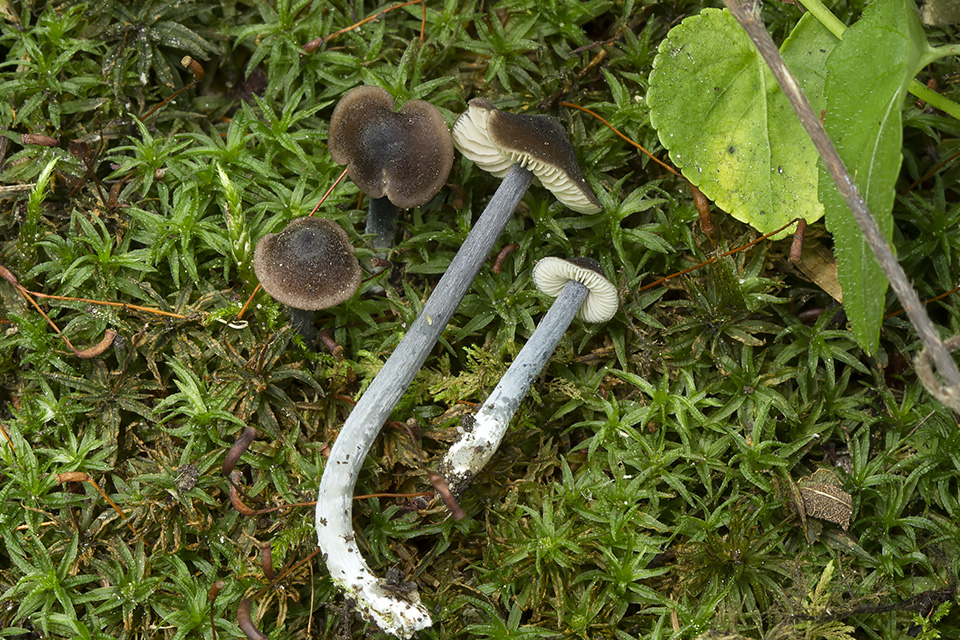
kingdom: Fungi
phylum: Basidiomycota
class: Agaricomycetes
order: Agaricales
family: Entolomataceae
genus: Entoloma
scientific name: Entoloma indikon
